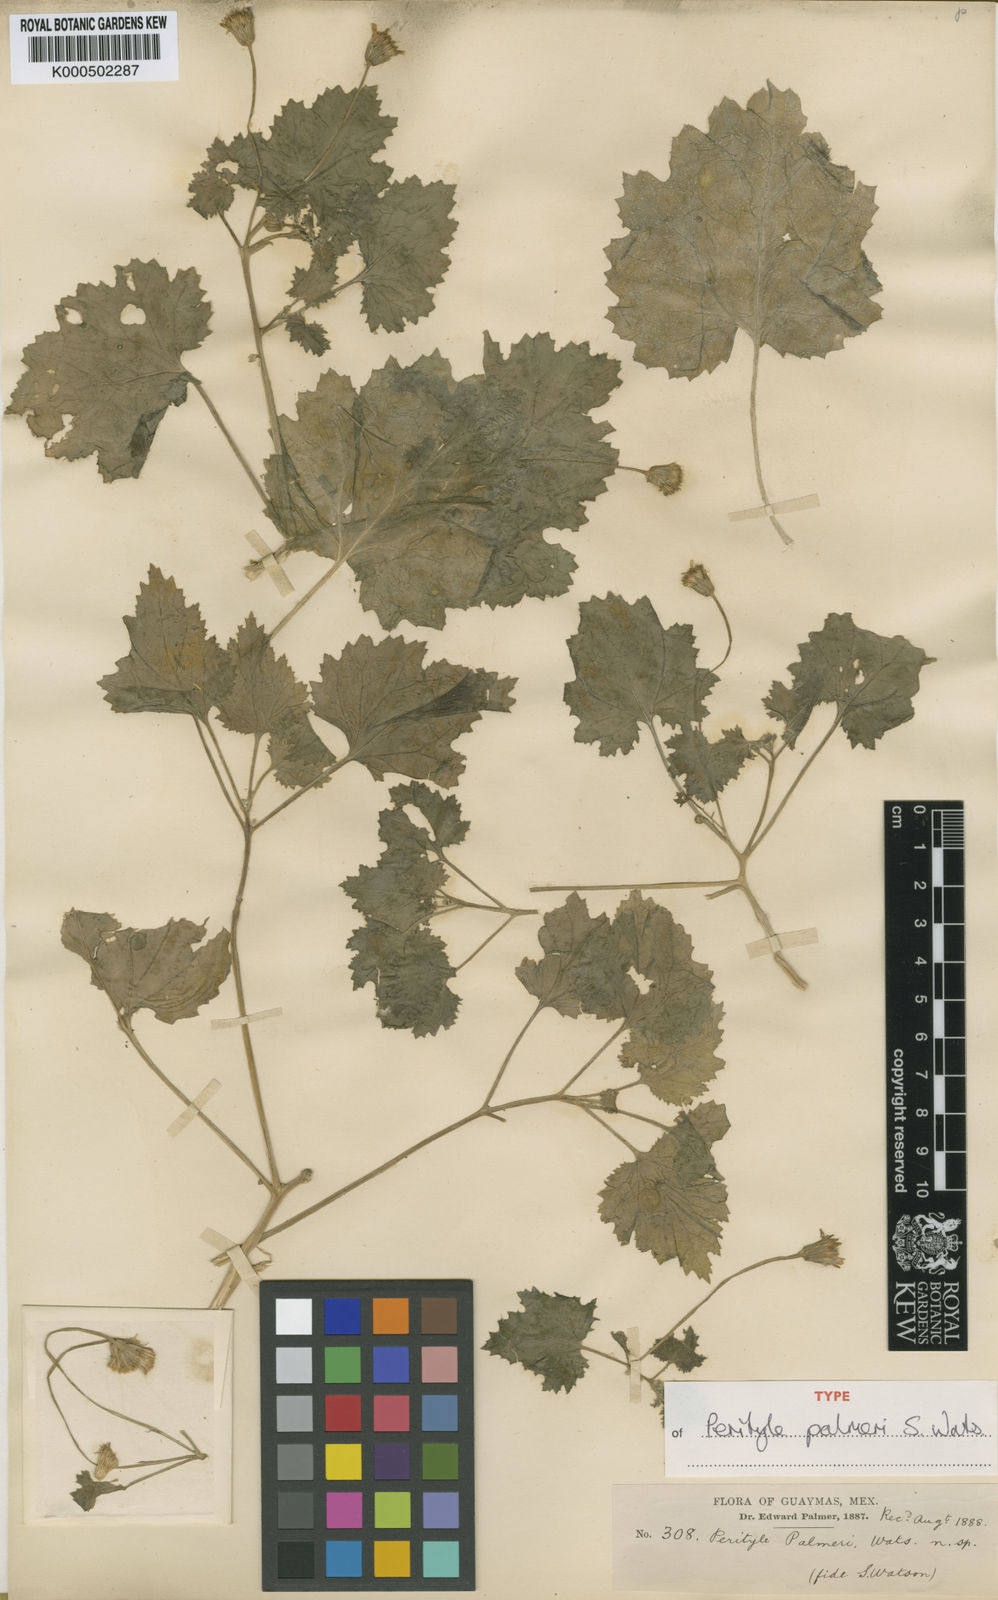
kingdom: Plantae
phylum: Tracheophyta
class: Magnoliopsida
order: Asterales
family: Asteraceae
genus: Laphamia
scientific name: Laphamia sanchezii
